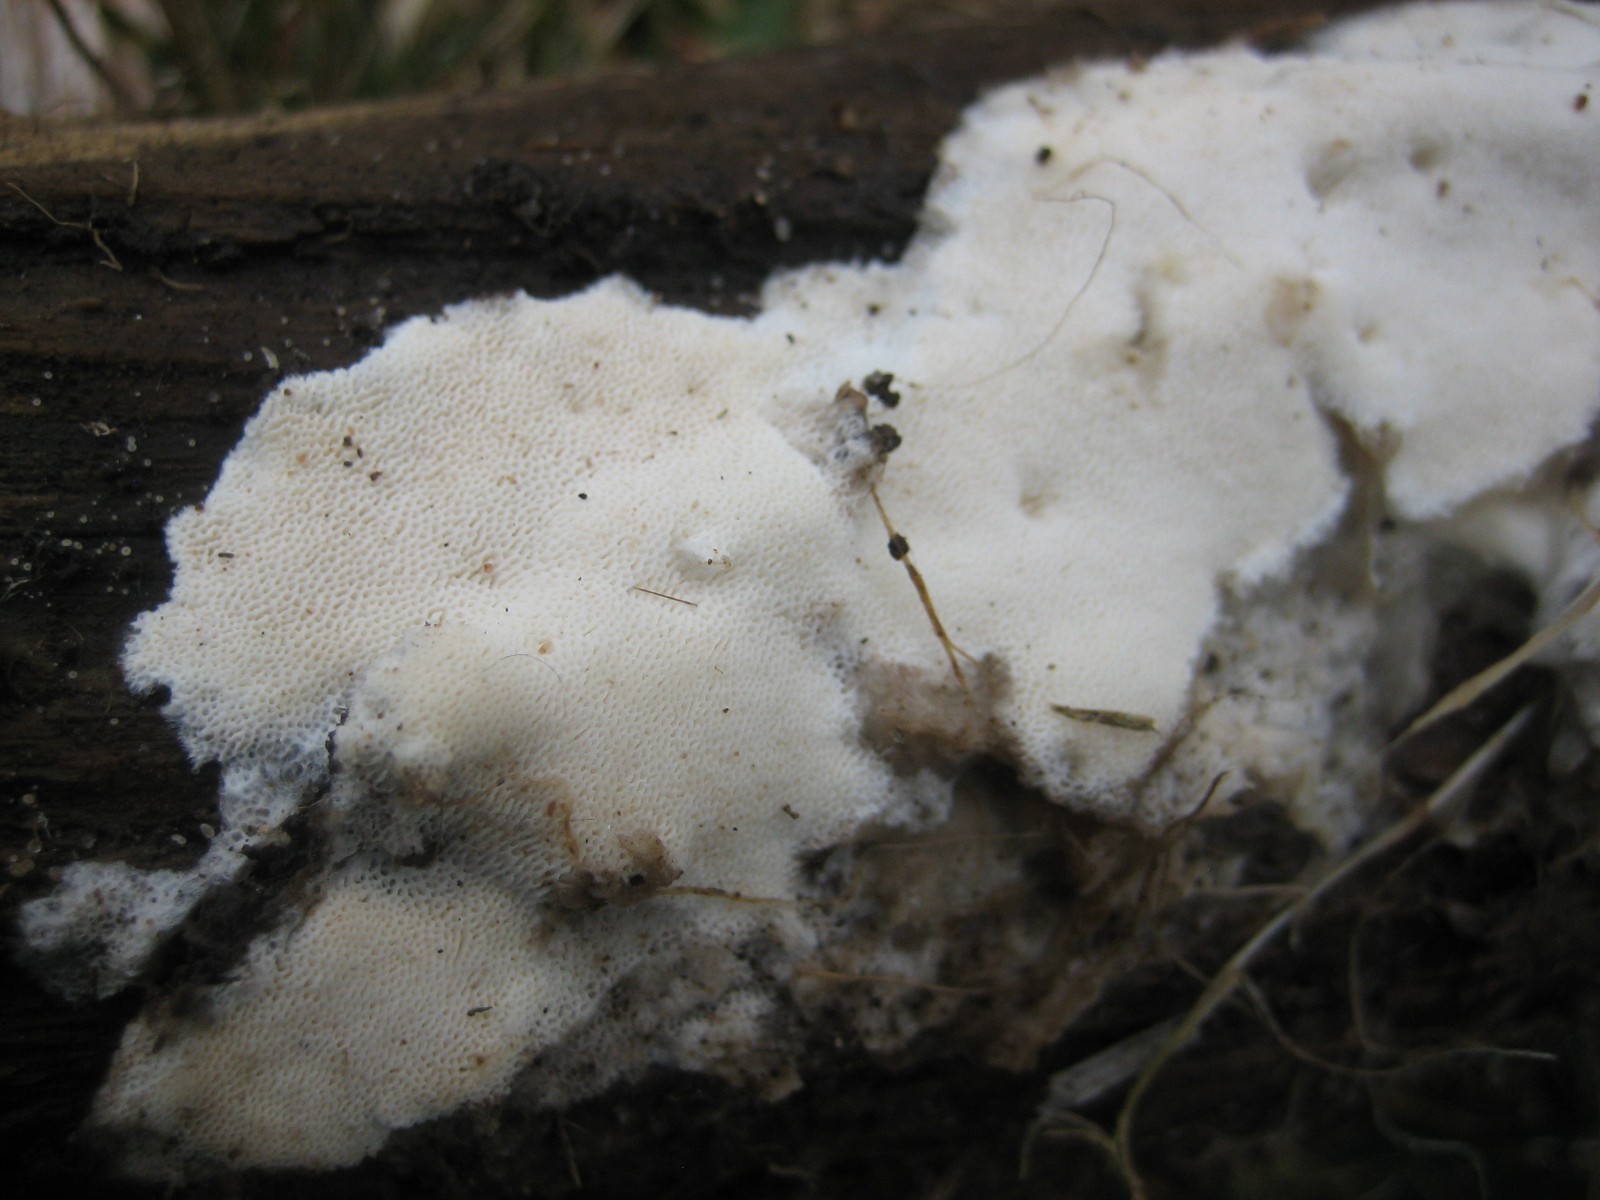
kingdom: Fungi
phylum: Basidiomycota
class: Agaricomycetes
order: Polyporales
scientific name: Polyporales
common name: poresvampordenen
